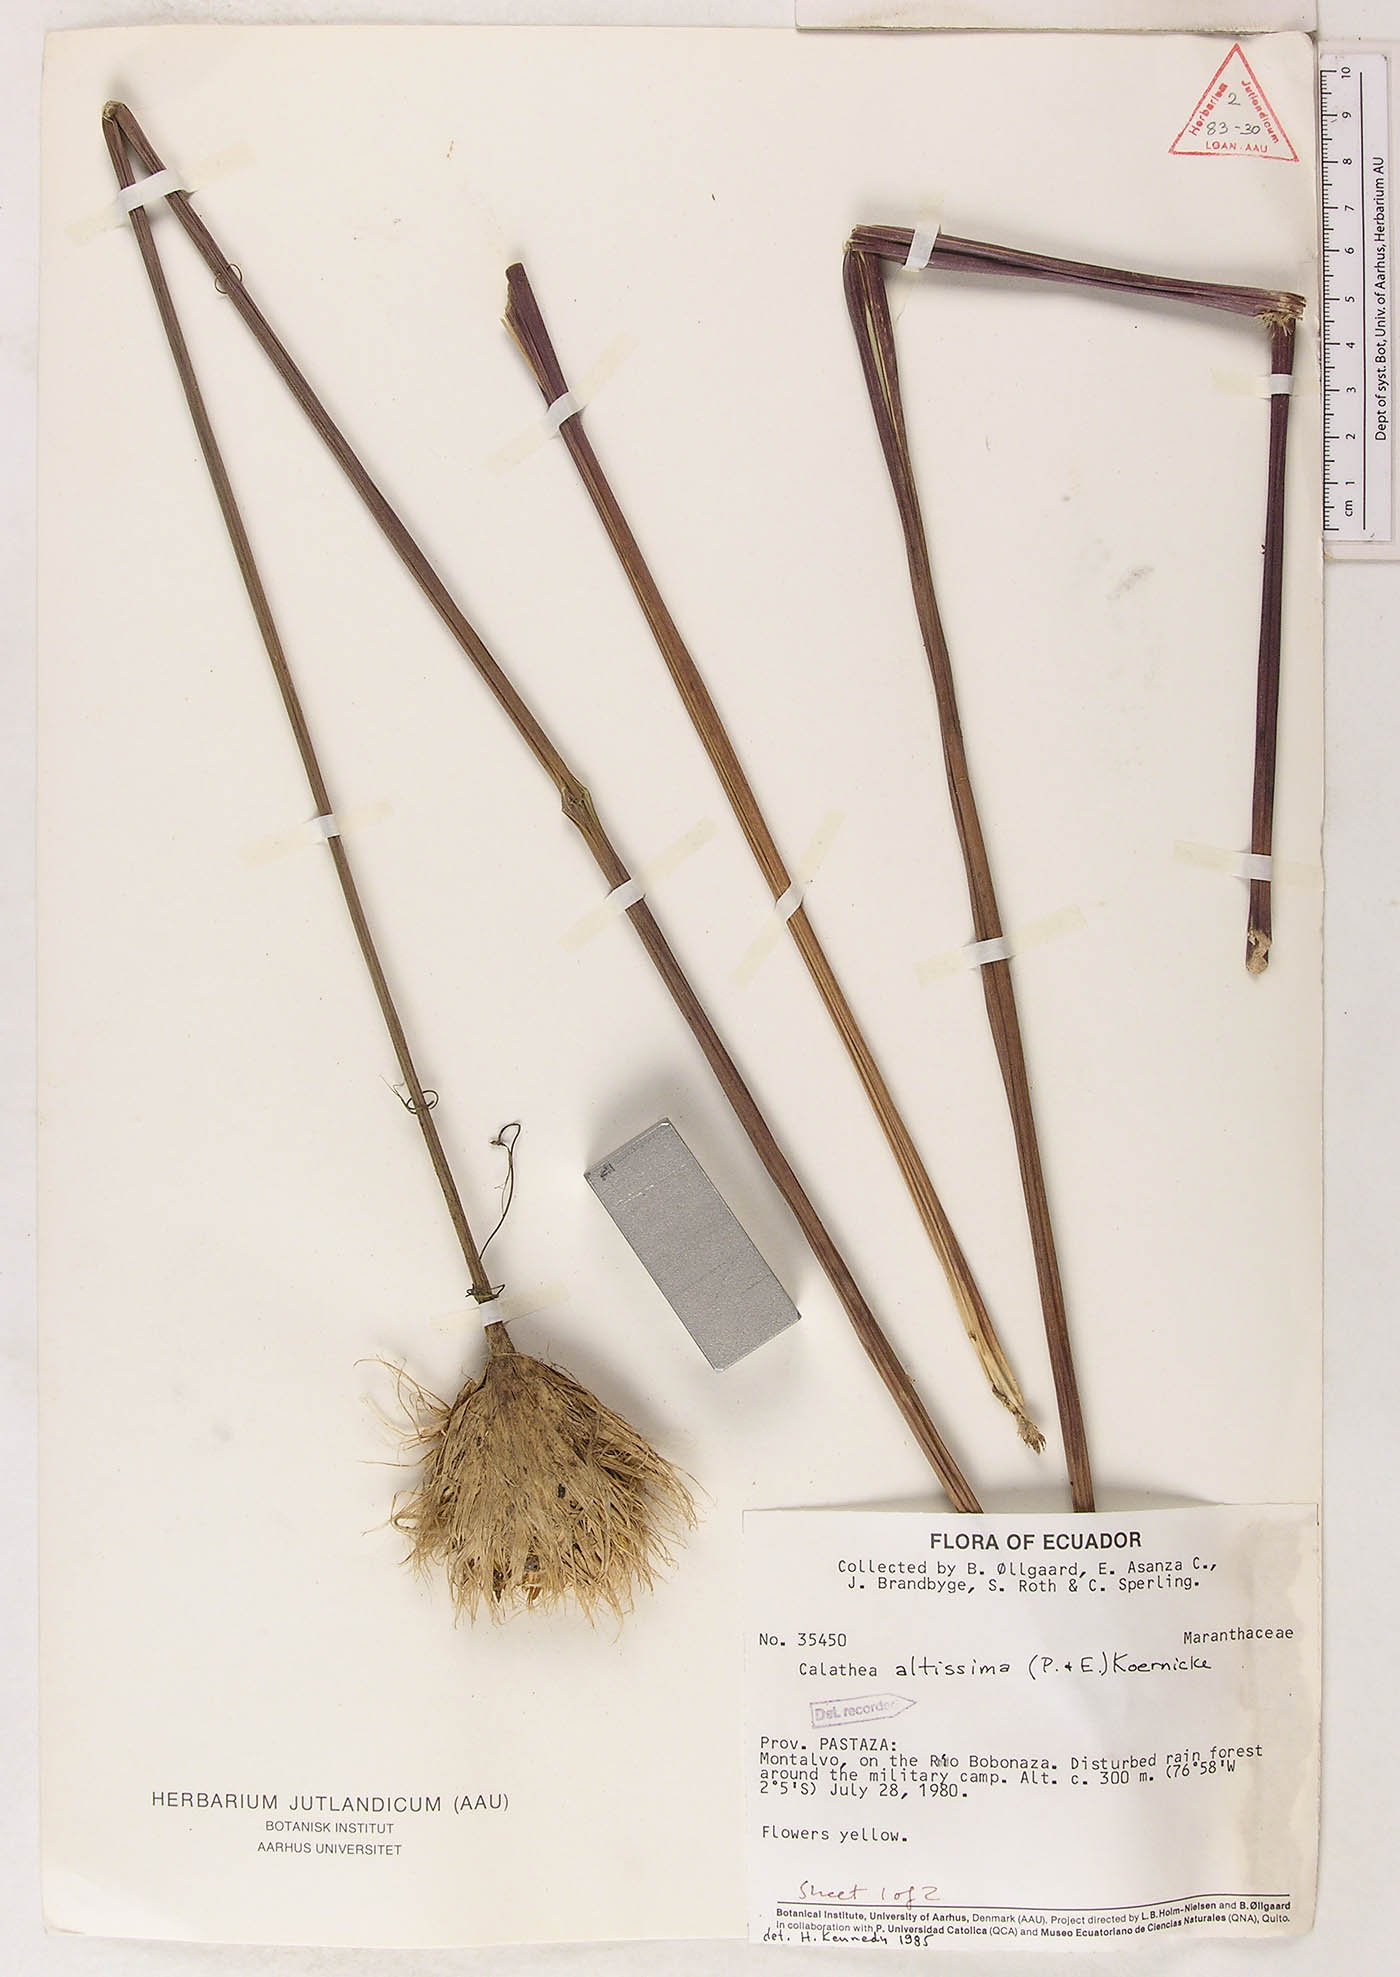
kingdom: Plantae
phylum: Tracheophyta
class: Liliopsida
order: Zingiberales
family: Marantaceae
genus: Goeppertia
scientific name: Goeppertia altissima
